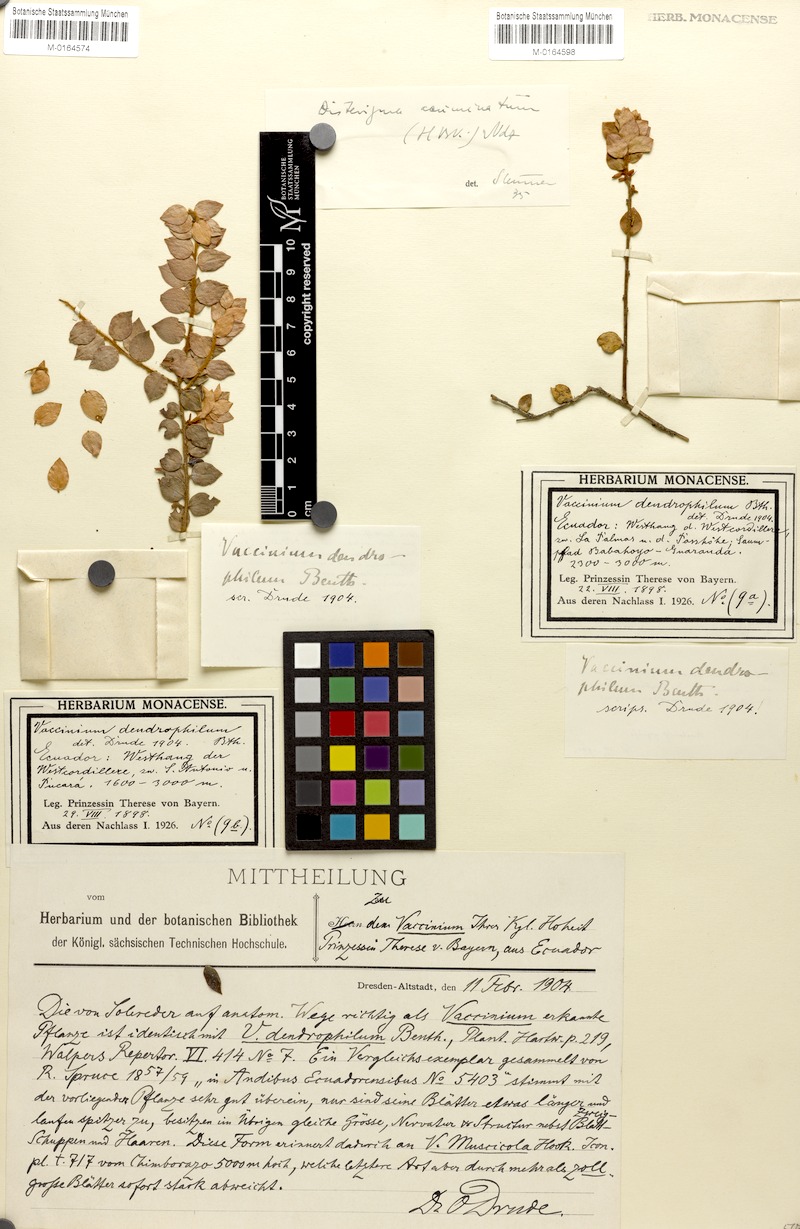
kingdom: Plantae
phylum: Tracheophyta
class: Magnoliopsida
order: Ericales
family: Ericaceae
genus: Disterigma
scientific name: Disterigma acuminatum
